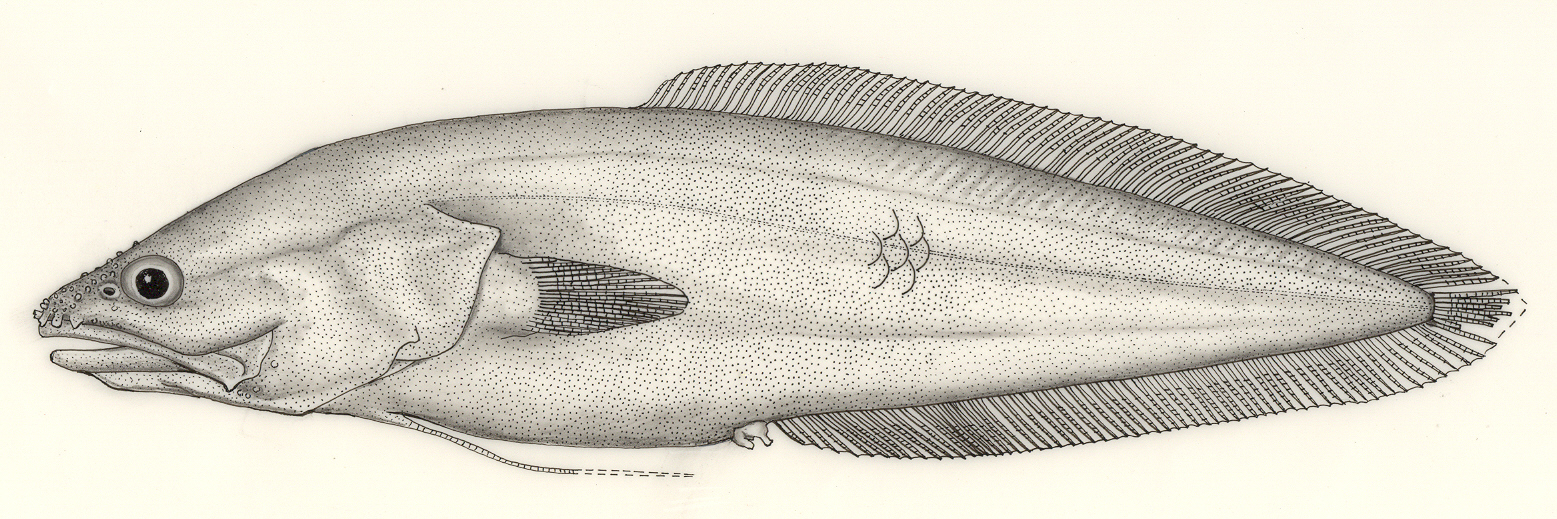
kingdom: Animalia
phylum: Chordata
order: Ophidiiformes
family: Bythitidae
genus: Microbrotula
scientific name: Microbrotula bentleyi
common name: Many-ray cusk
